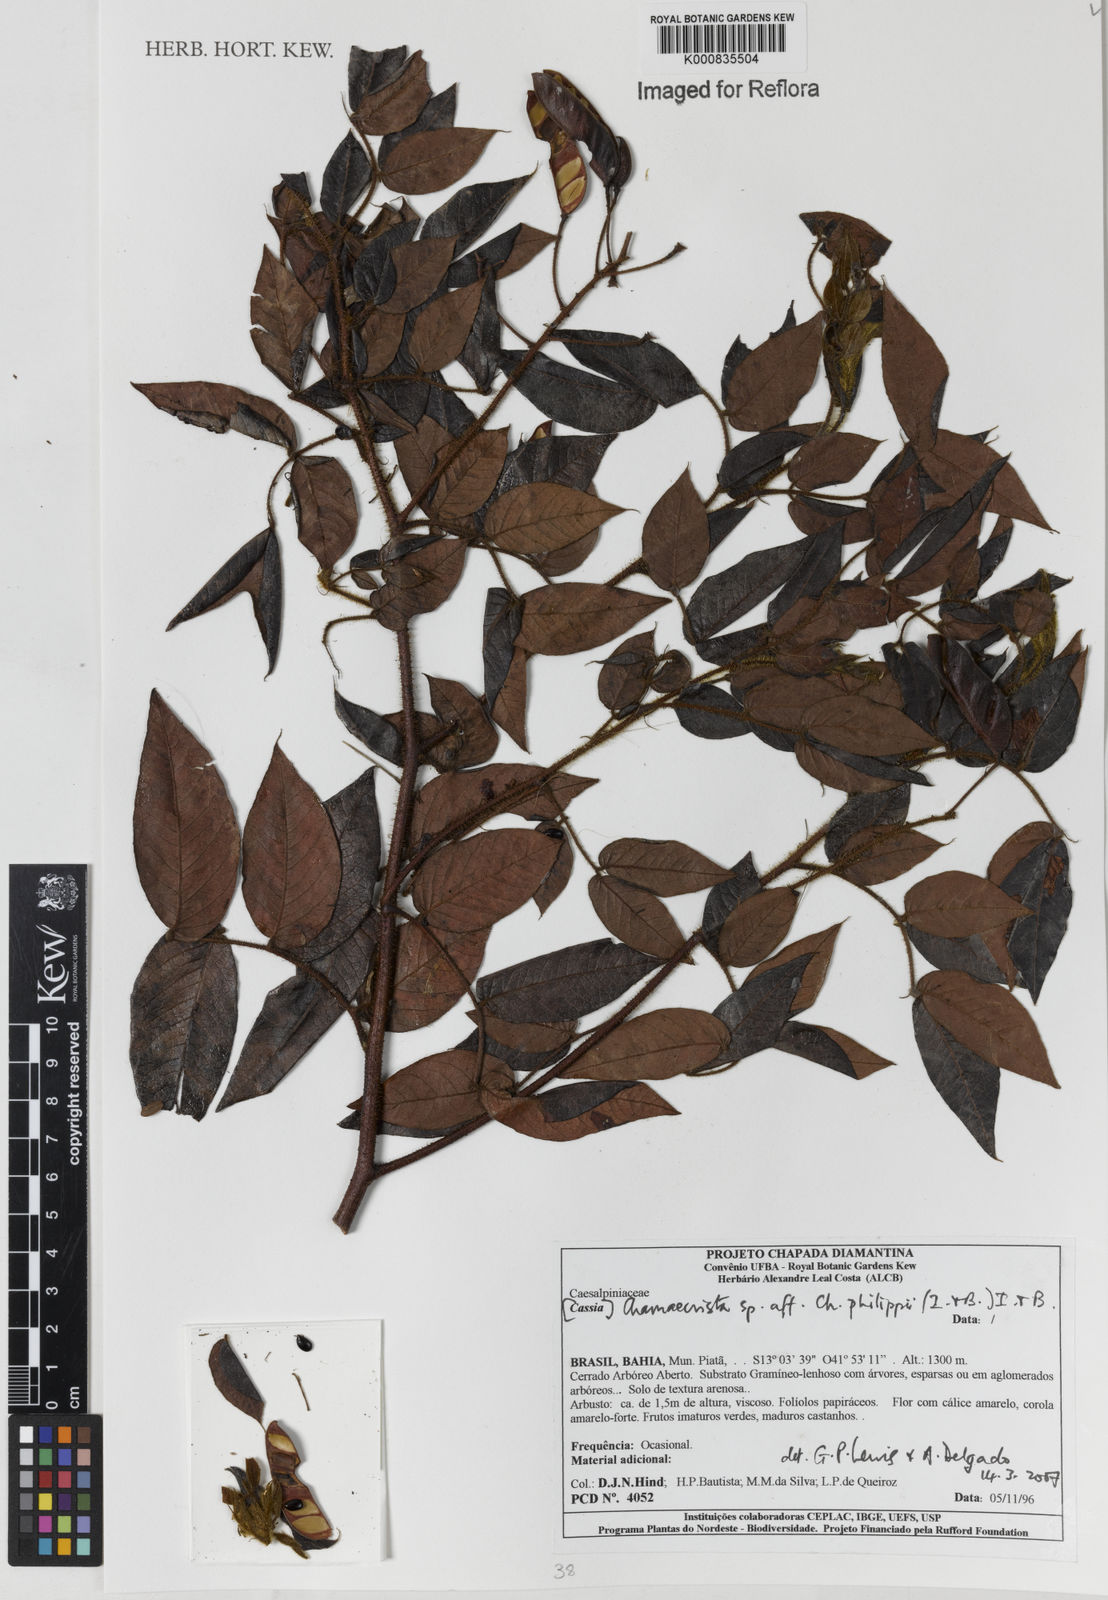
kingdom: Plantae
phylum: Tracheophyta
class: Magnoliopsida
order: Fabales
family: Fabaceae
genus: Chamaecrista
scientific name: Chamaecrista philippii
